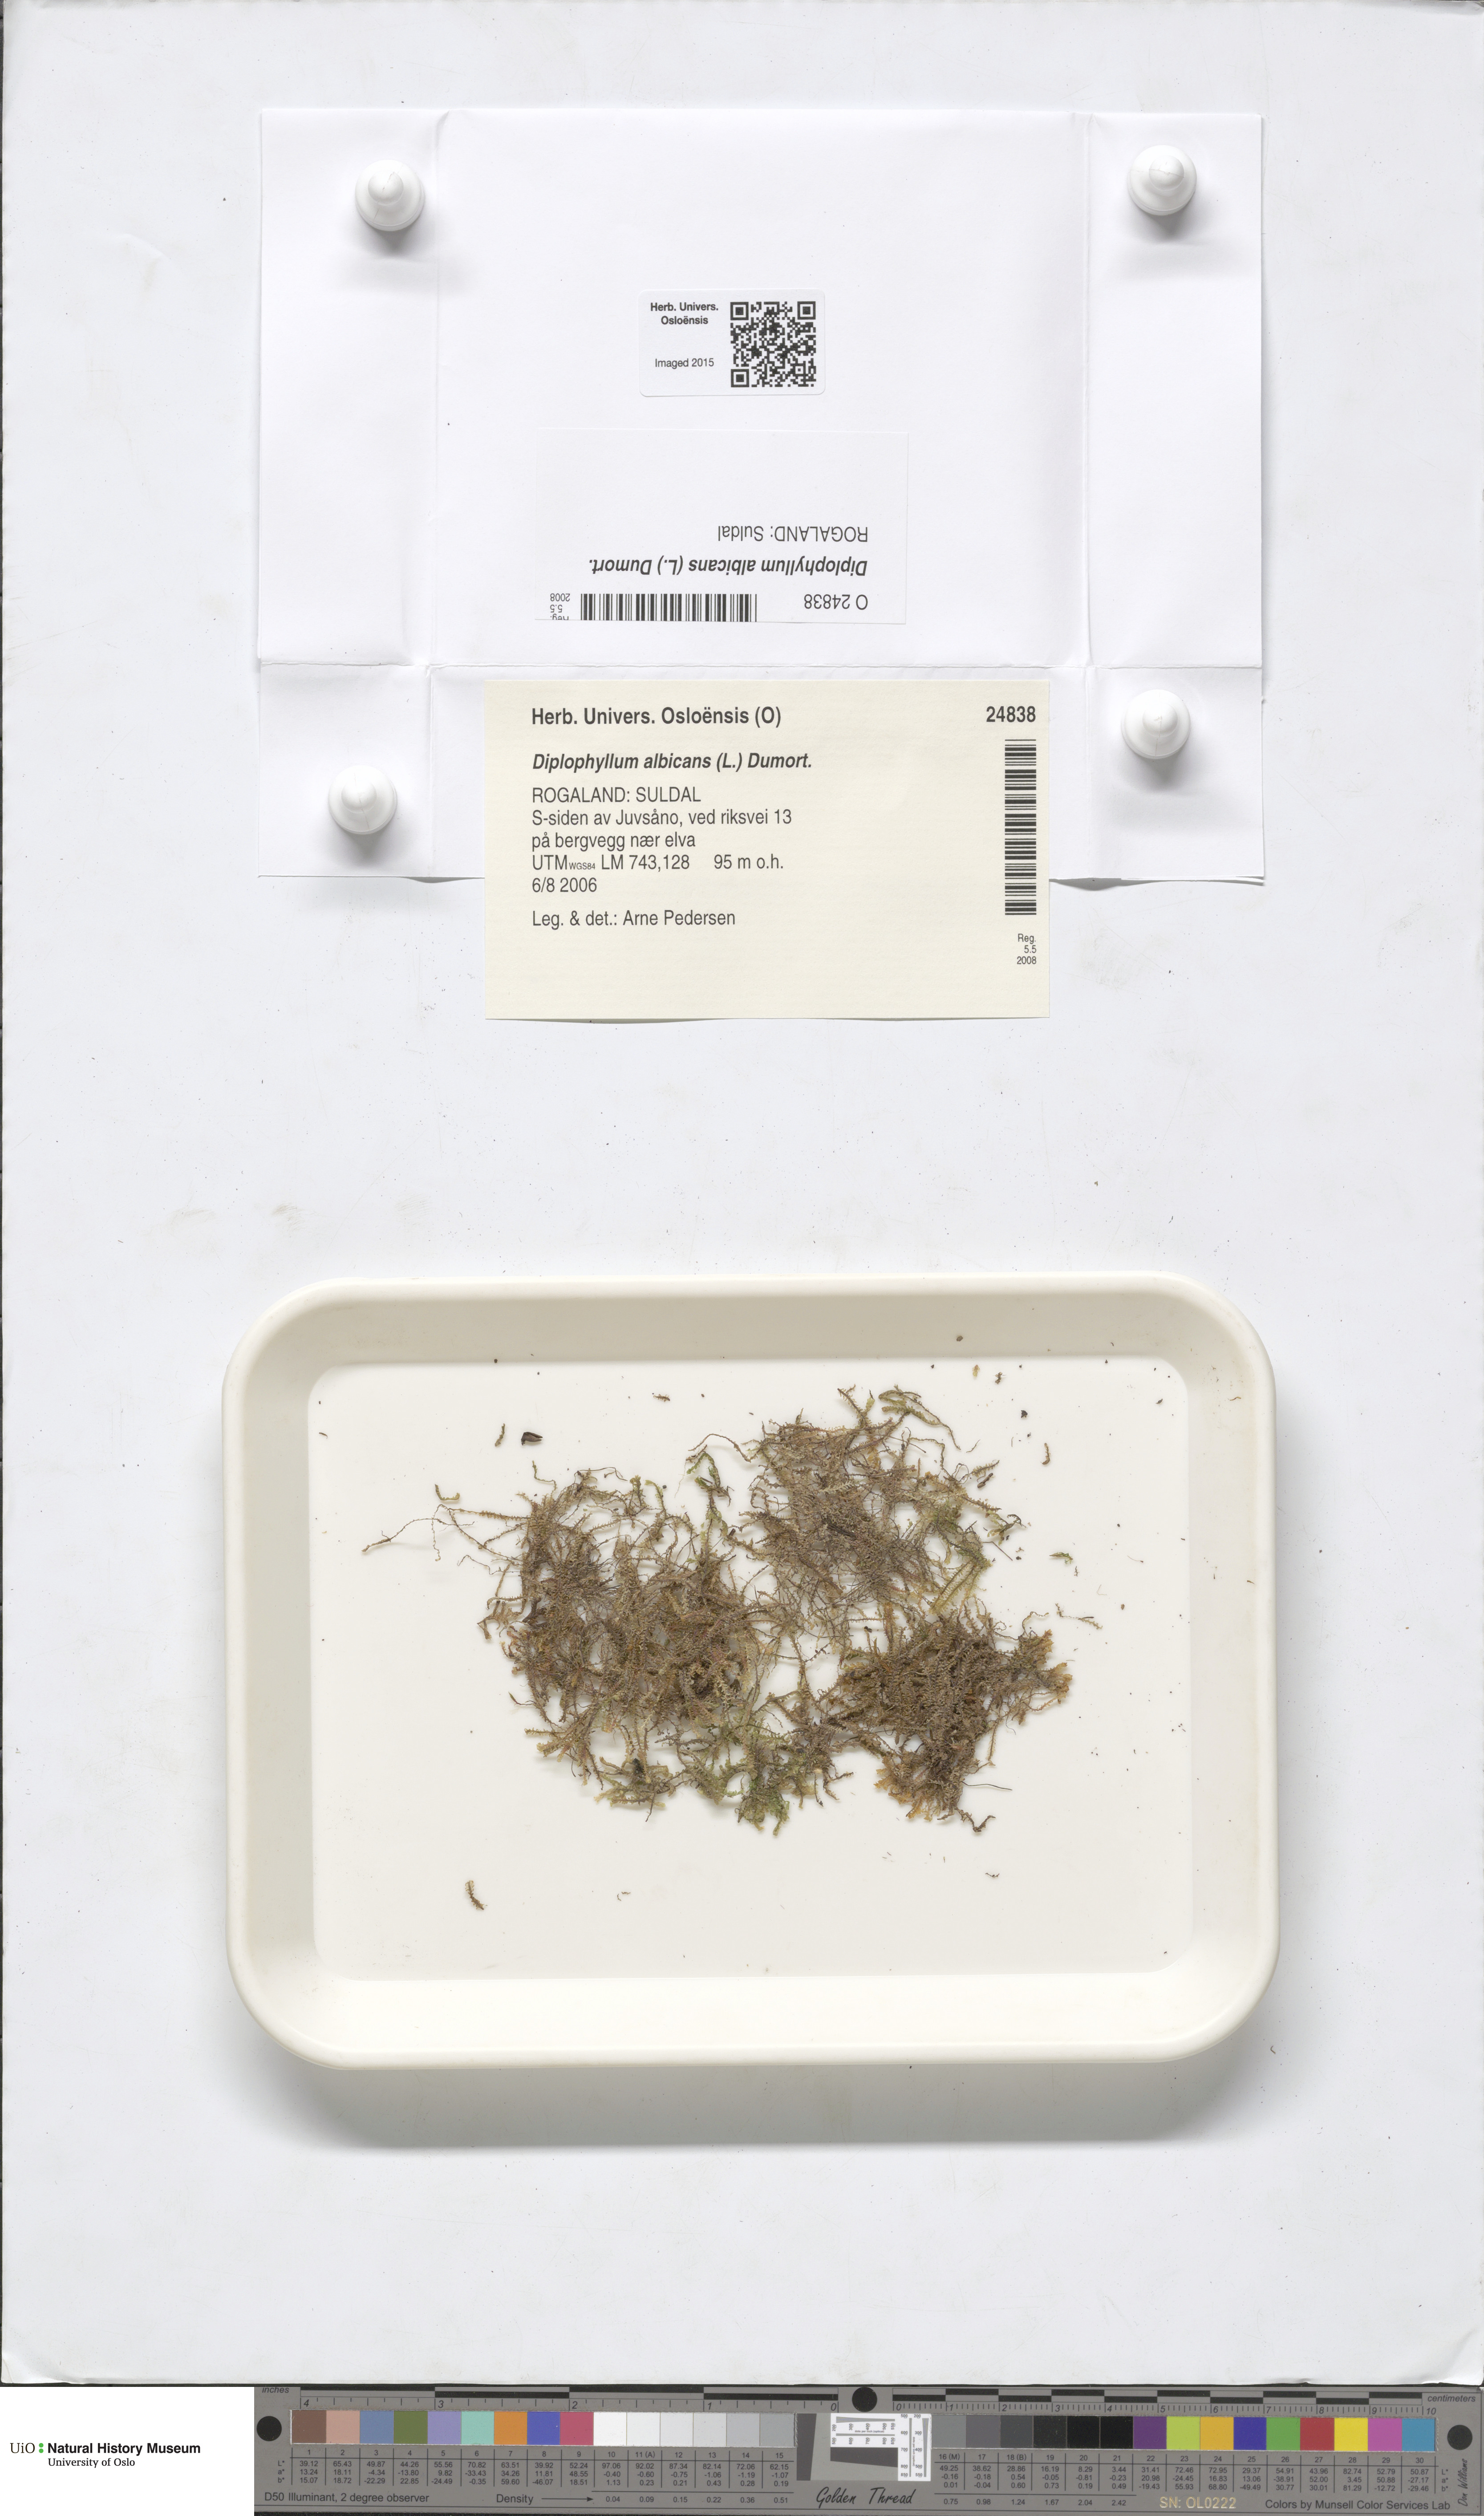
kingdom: Plantae
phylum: Marchantiophyta
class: Jungermanniopsida
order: Jungermanniales
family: Scapaniaceae
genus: Diplophyllum
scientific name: Diplophyllum albicans
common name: White earwort
